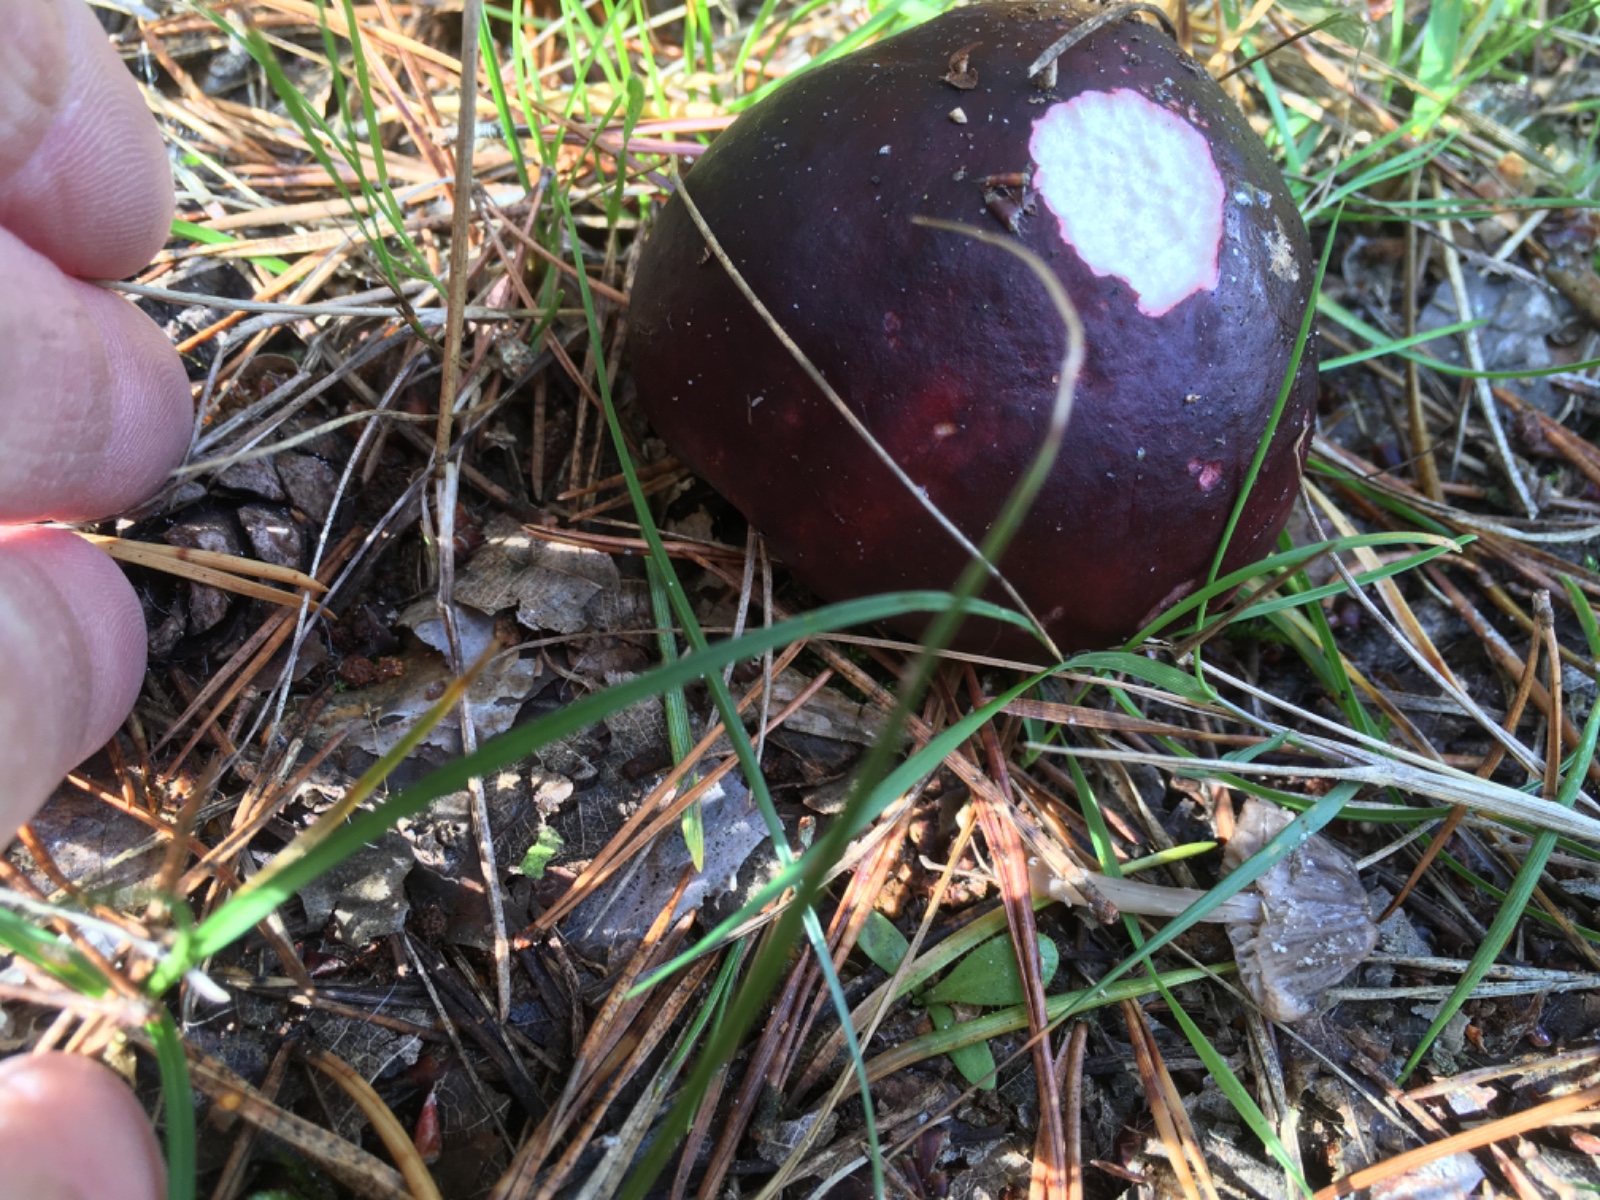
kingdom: Fungi
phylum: Basidiomycota
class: Agaricomycetes
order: Russulales
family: Russulaceae
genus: Russula
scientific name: Russula sardonia
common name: citronbladet skørhat
